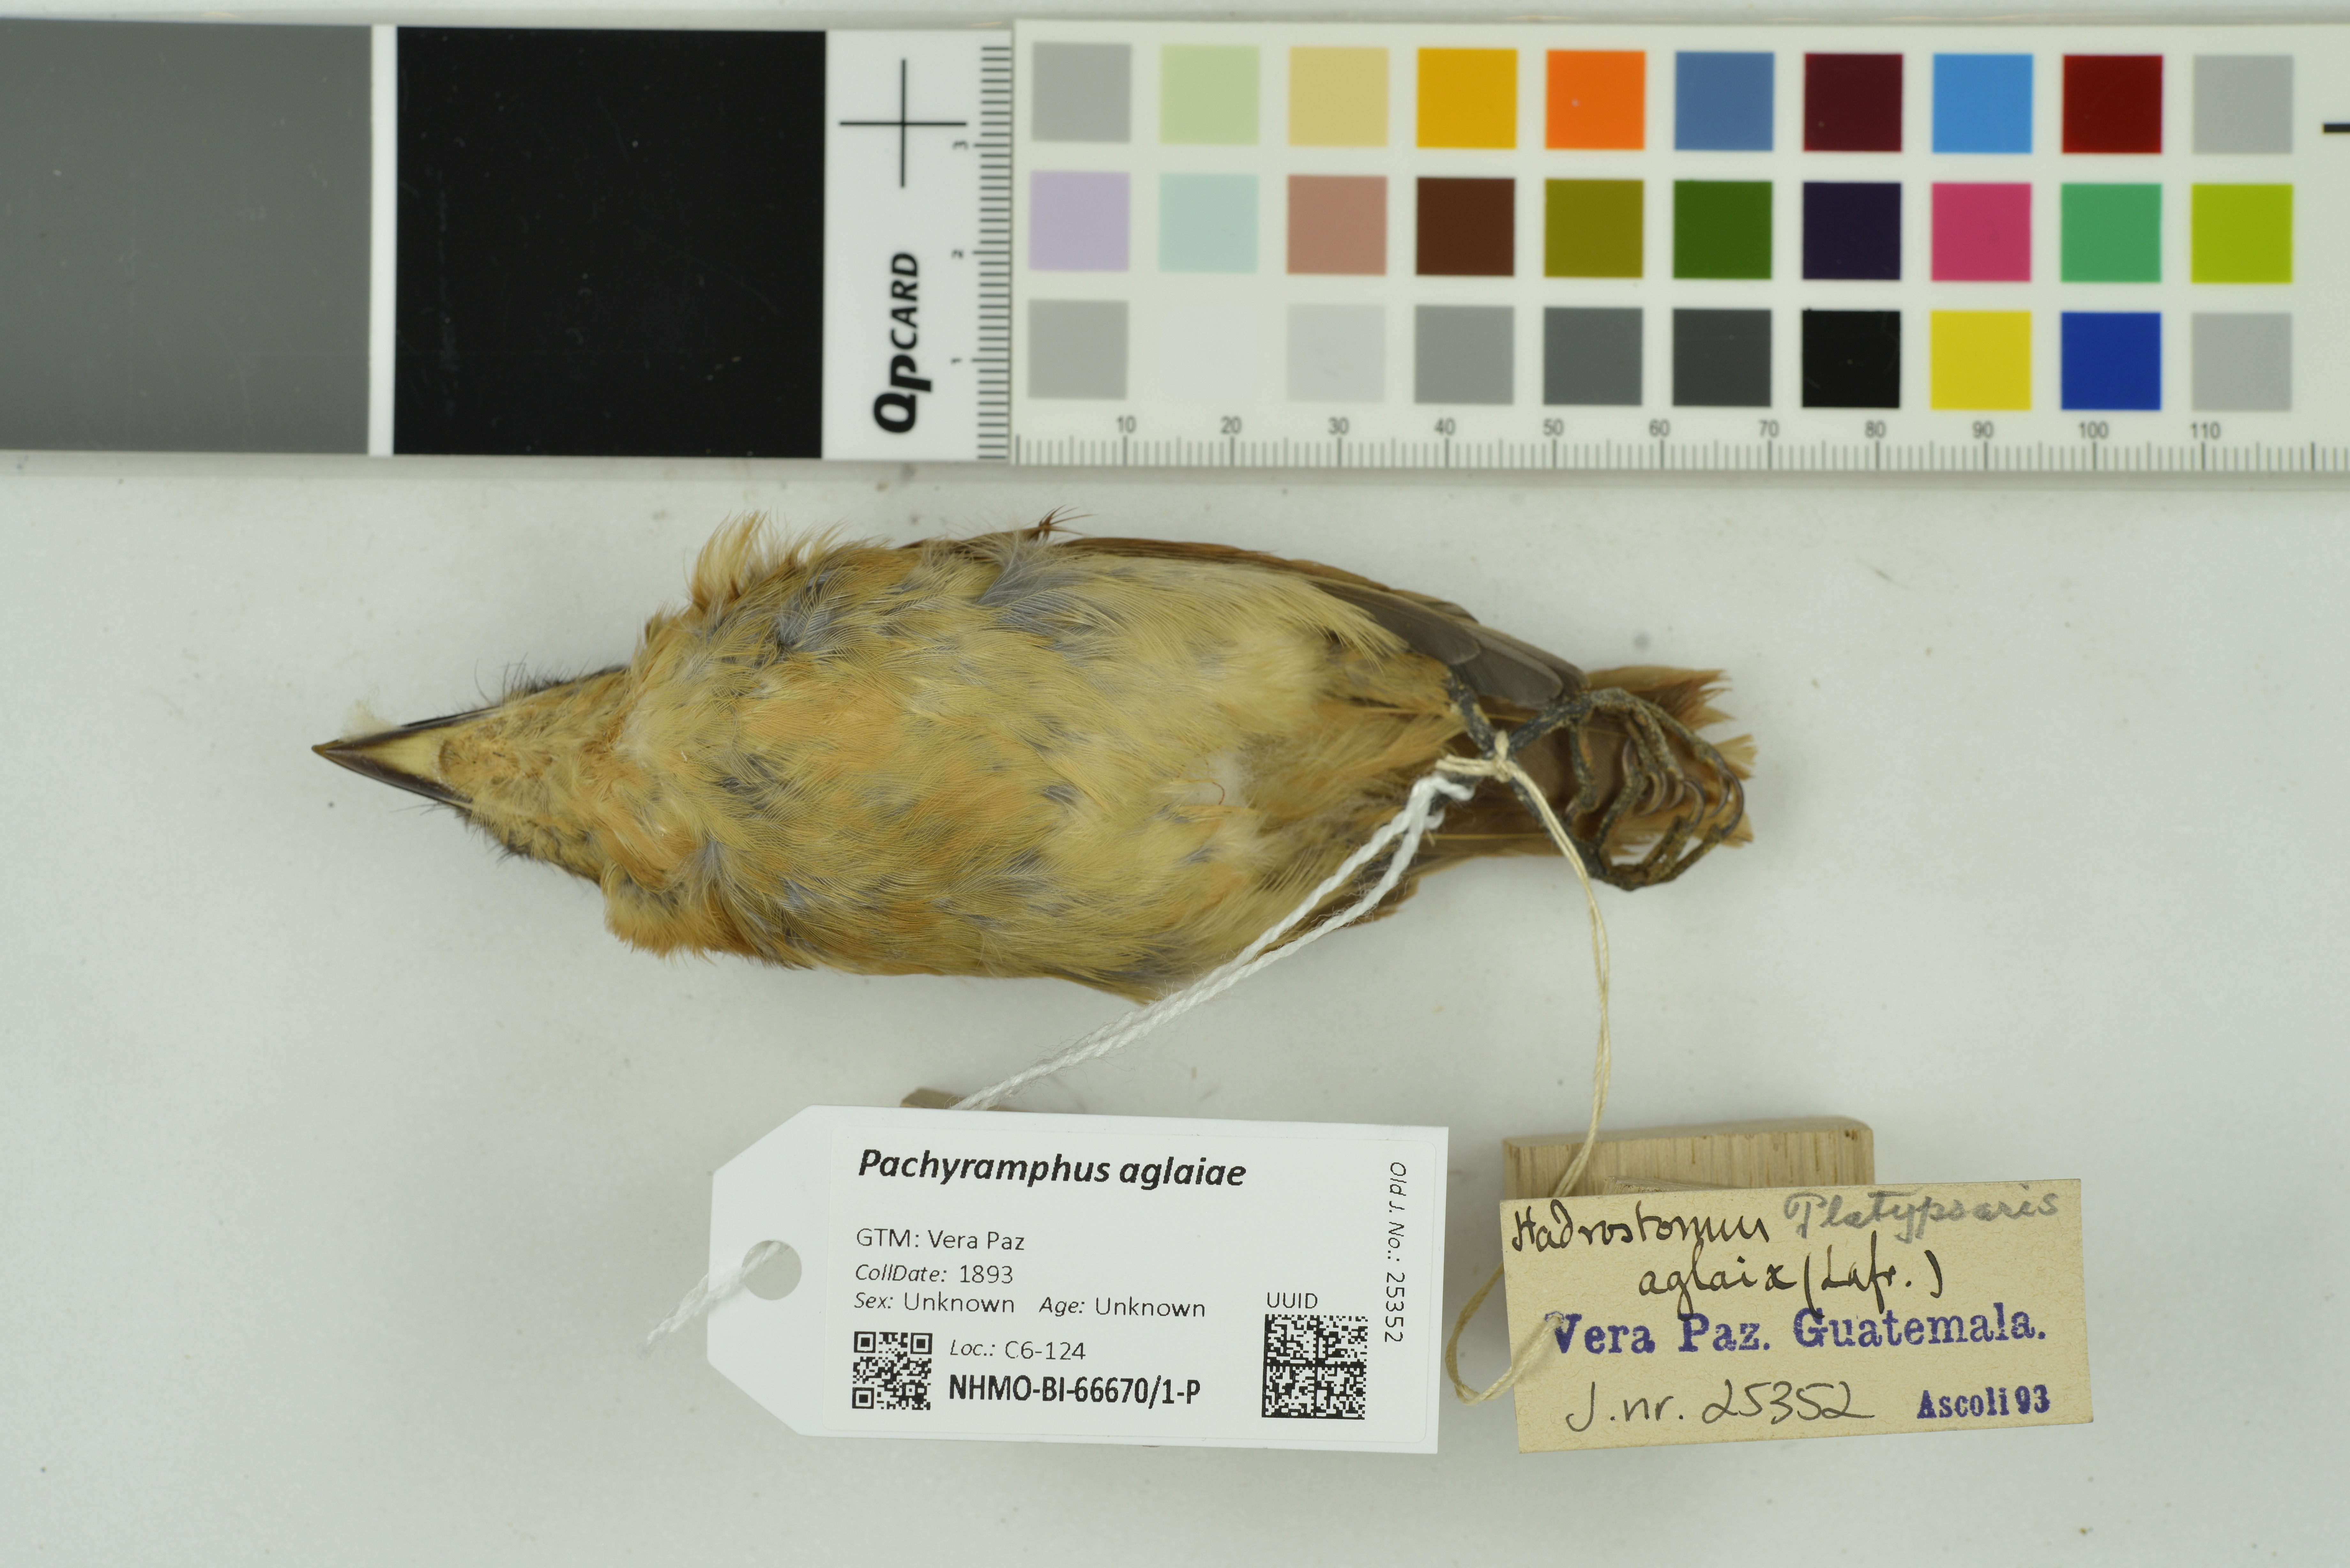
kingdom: Animalia
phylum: Chordata
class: Aves
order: Passeriformes
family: Cotingidae
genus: Pachyramphus
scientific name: Pachyramphus aglaiae
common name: Rose-throated becard
